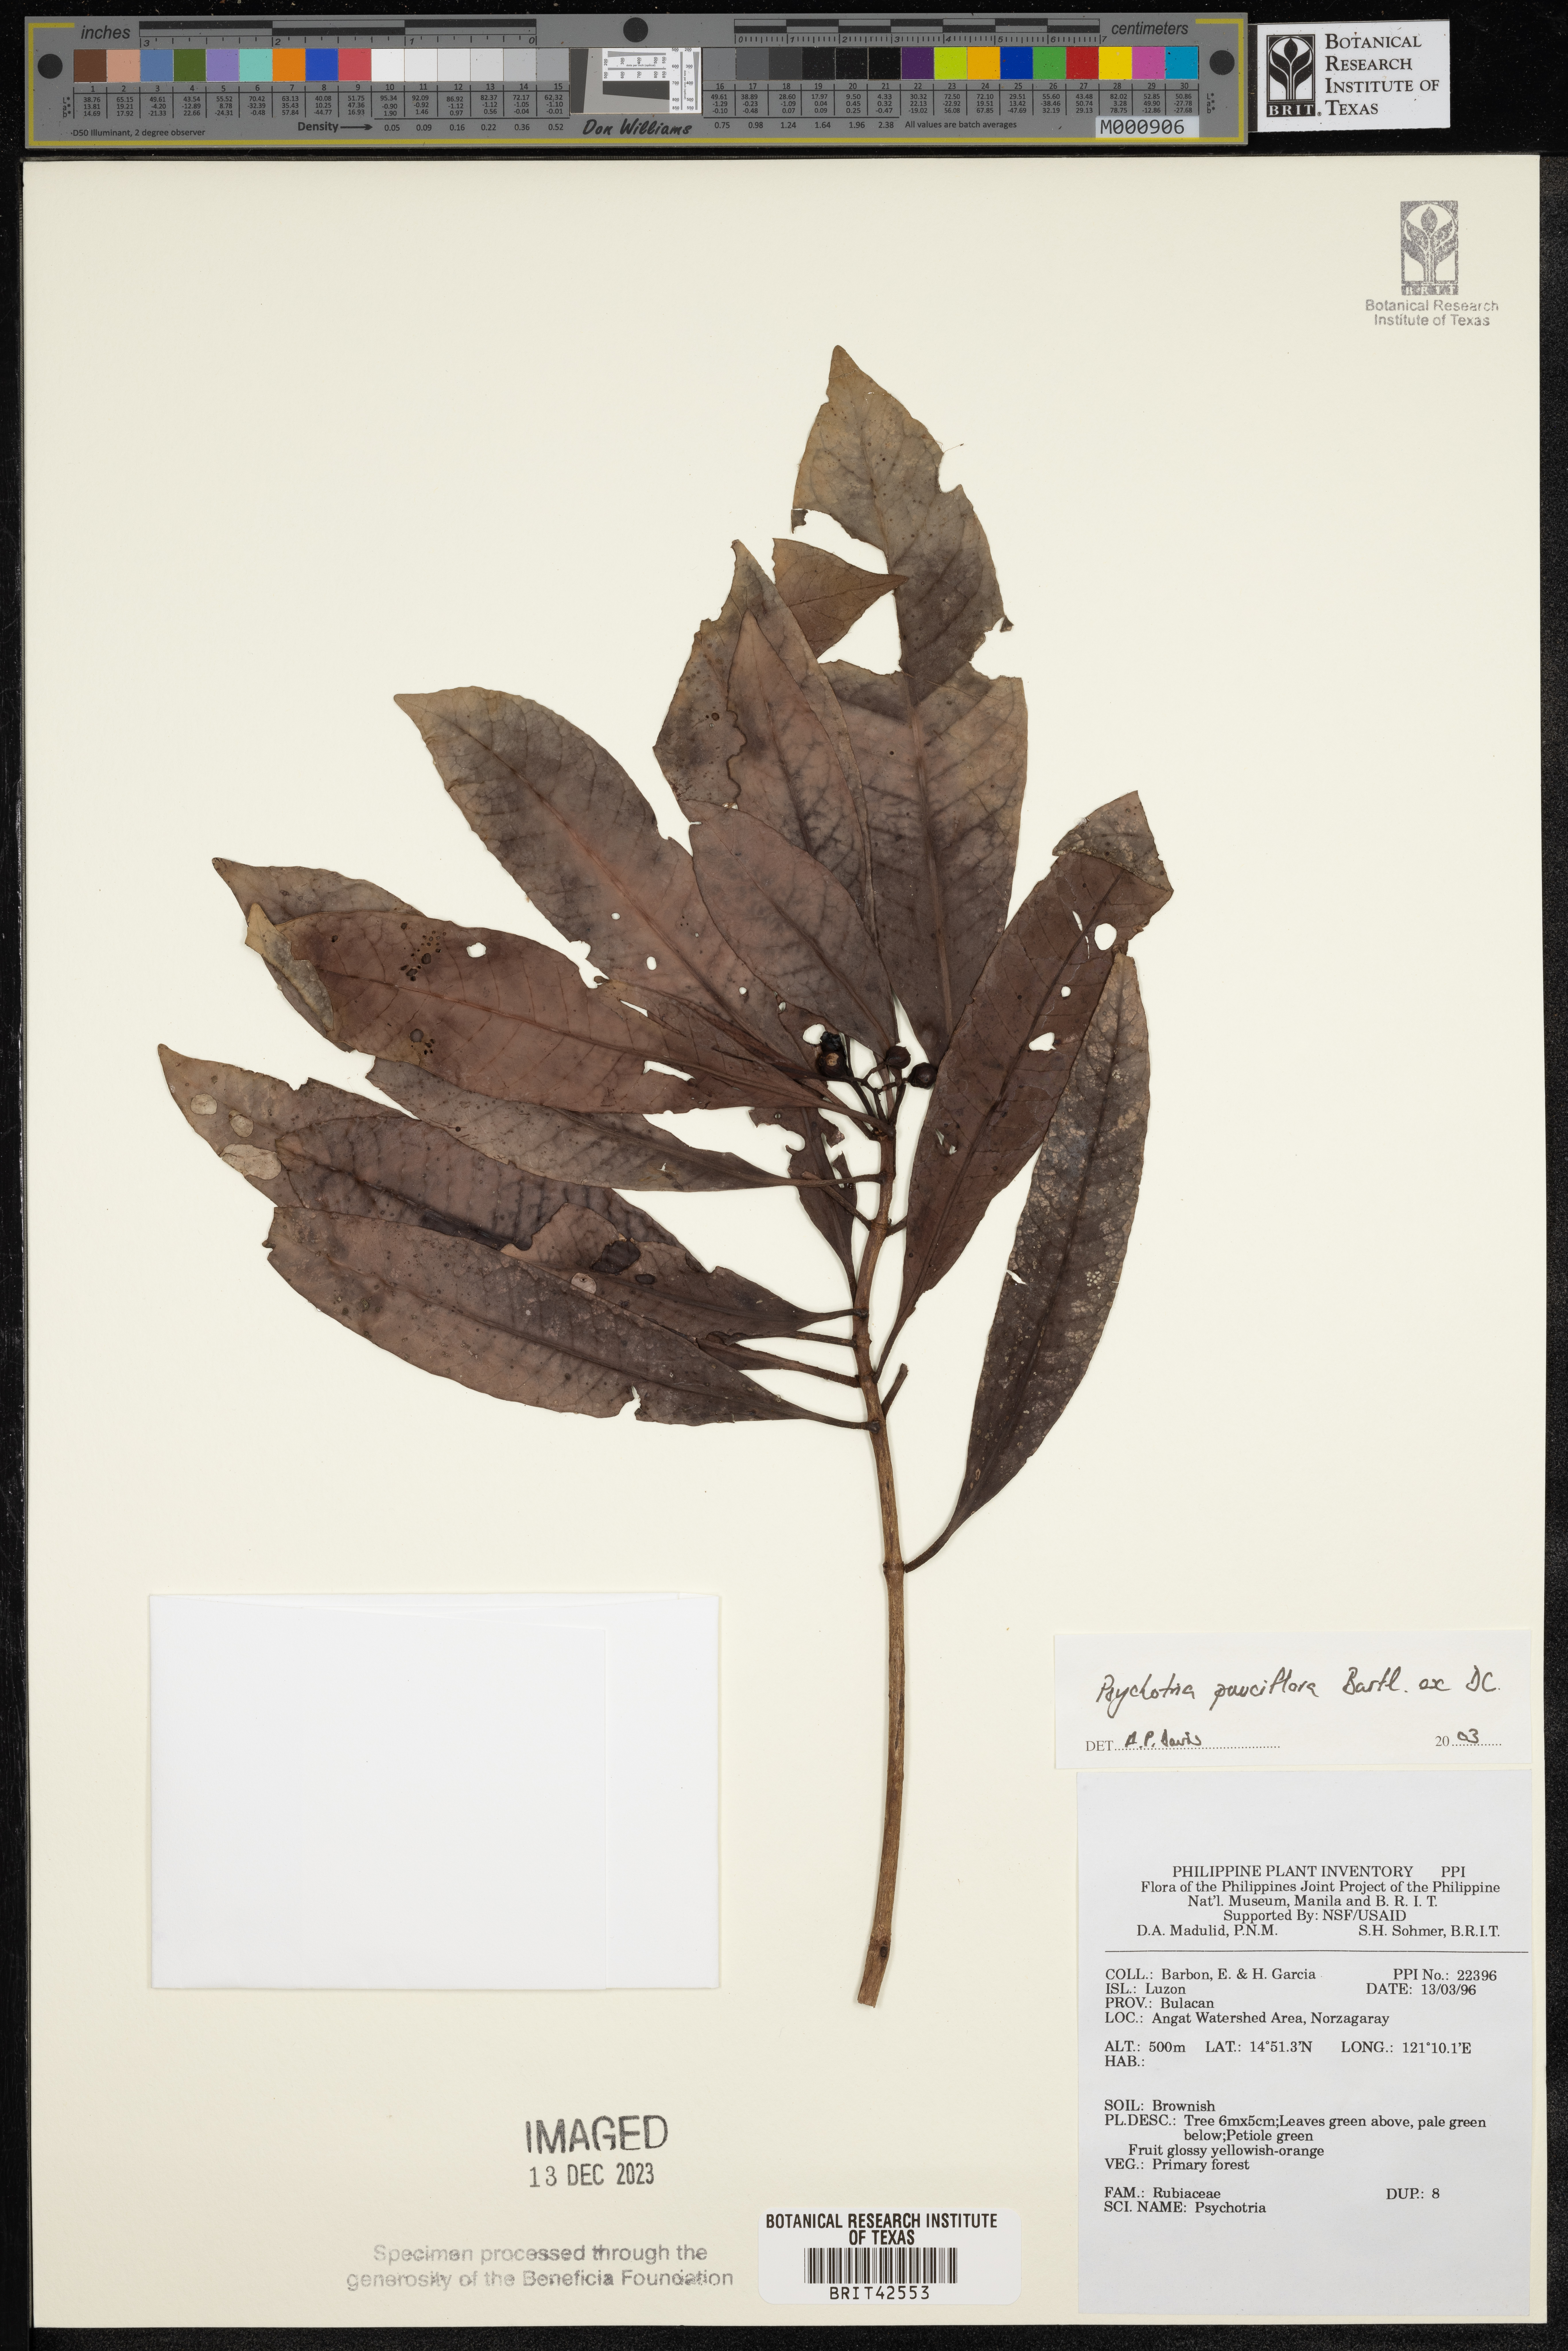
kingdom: Plantae
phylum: Tracheophyta
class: Magnoliopsida
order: Gentianales
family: Rubiaceae
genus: Psychotria
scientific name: Psychotria subobliqua
